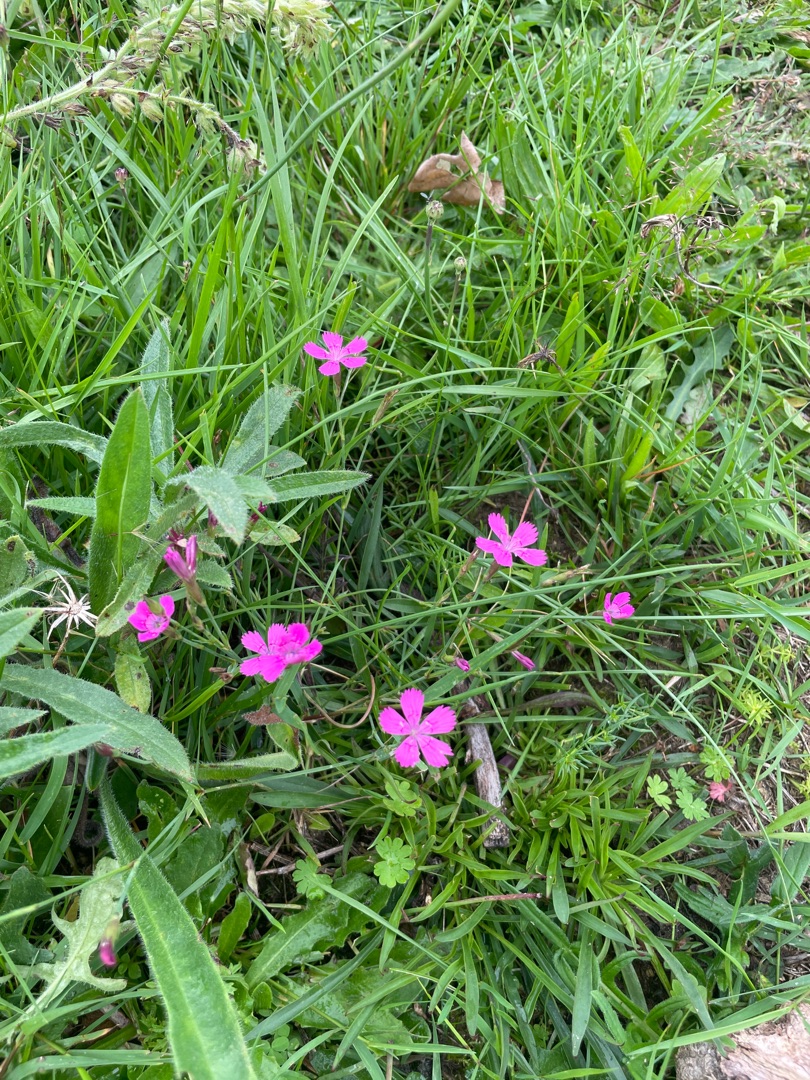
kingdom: Plantae
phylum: Tracheophyta
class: Magnoliopsida
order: Caryophyllales
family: Caryophyllaceae
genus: Dianthus
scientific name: Dianthus deltoides
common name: Bakke-nellike
